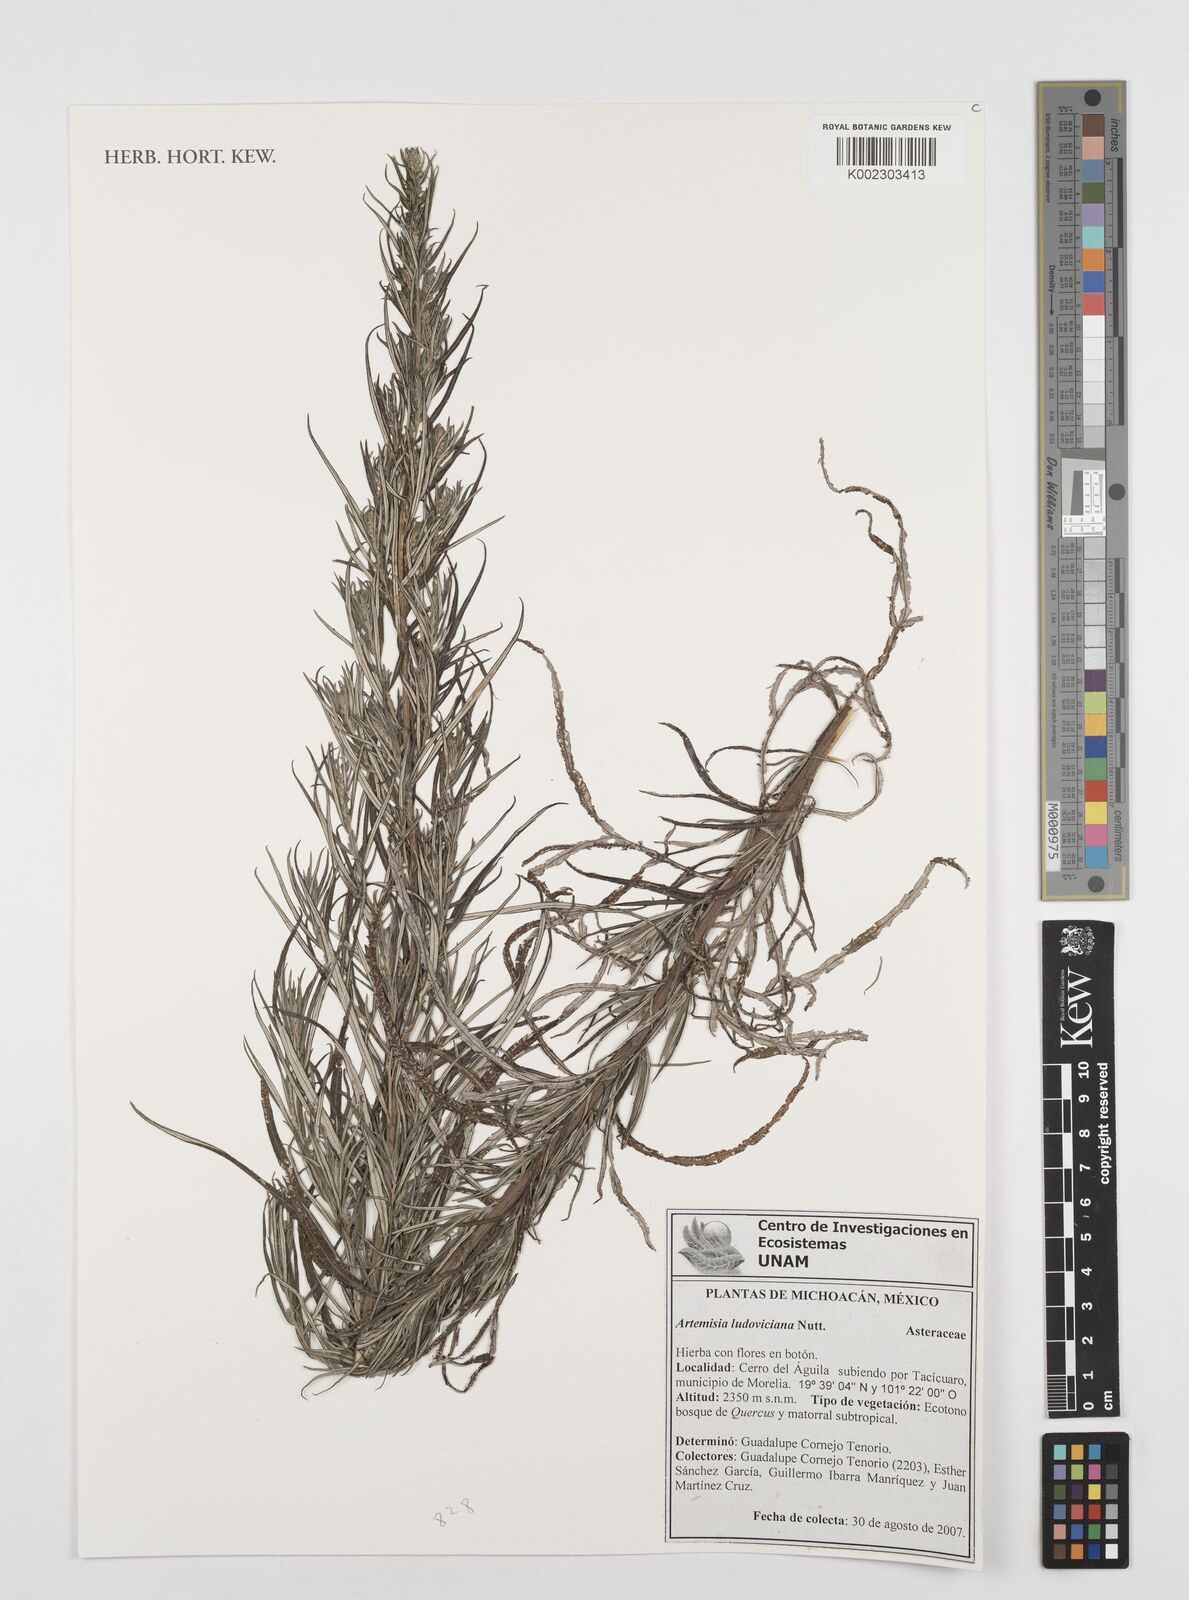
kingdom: Plantae
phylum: Tracheophyta
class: Magnoliopsida
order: Asterales
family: Asteraceae
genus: Artemisia
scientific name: Artemisia ludoviciana
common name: Western mugwort
